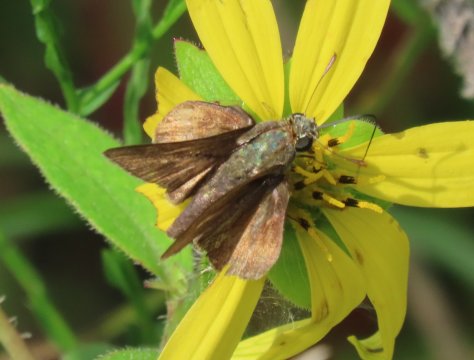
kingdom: Animalia
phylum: Arthropoda
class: Insecta
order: Lepidoptera
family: Hesperiidae
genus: Wallengrenia
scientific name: Wallengrenia otho
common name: Southern Broken-Dash
